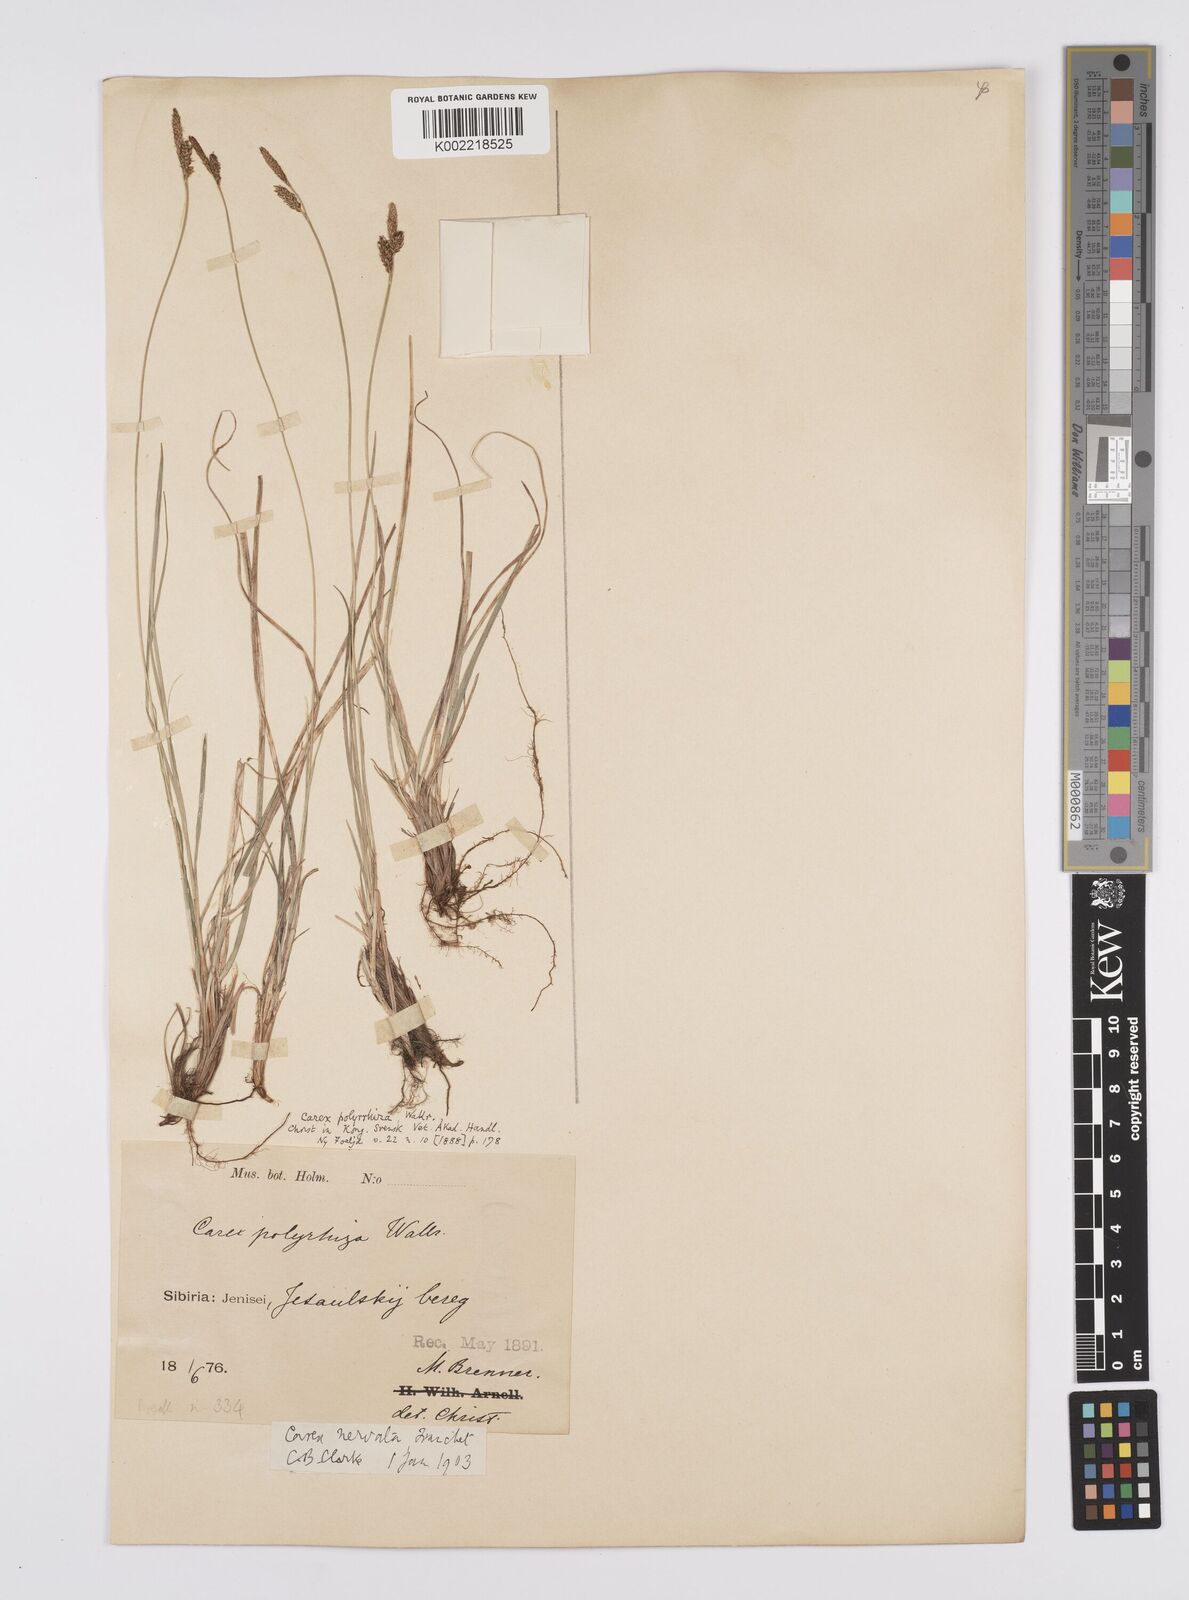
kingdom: Plantae
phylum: Tracheophyta
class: Liliopsida
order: Poales
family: Cyperaceae
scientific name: Cyperaceae
